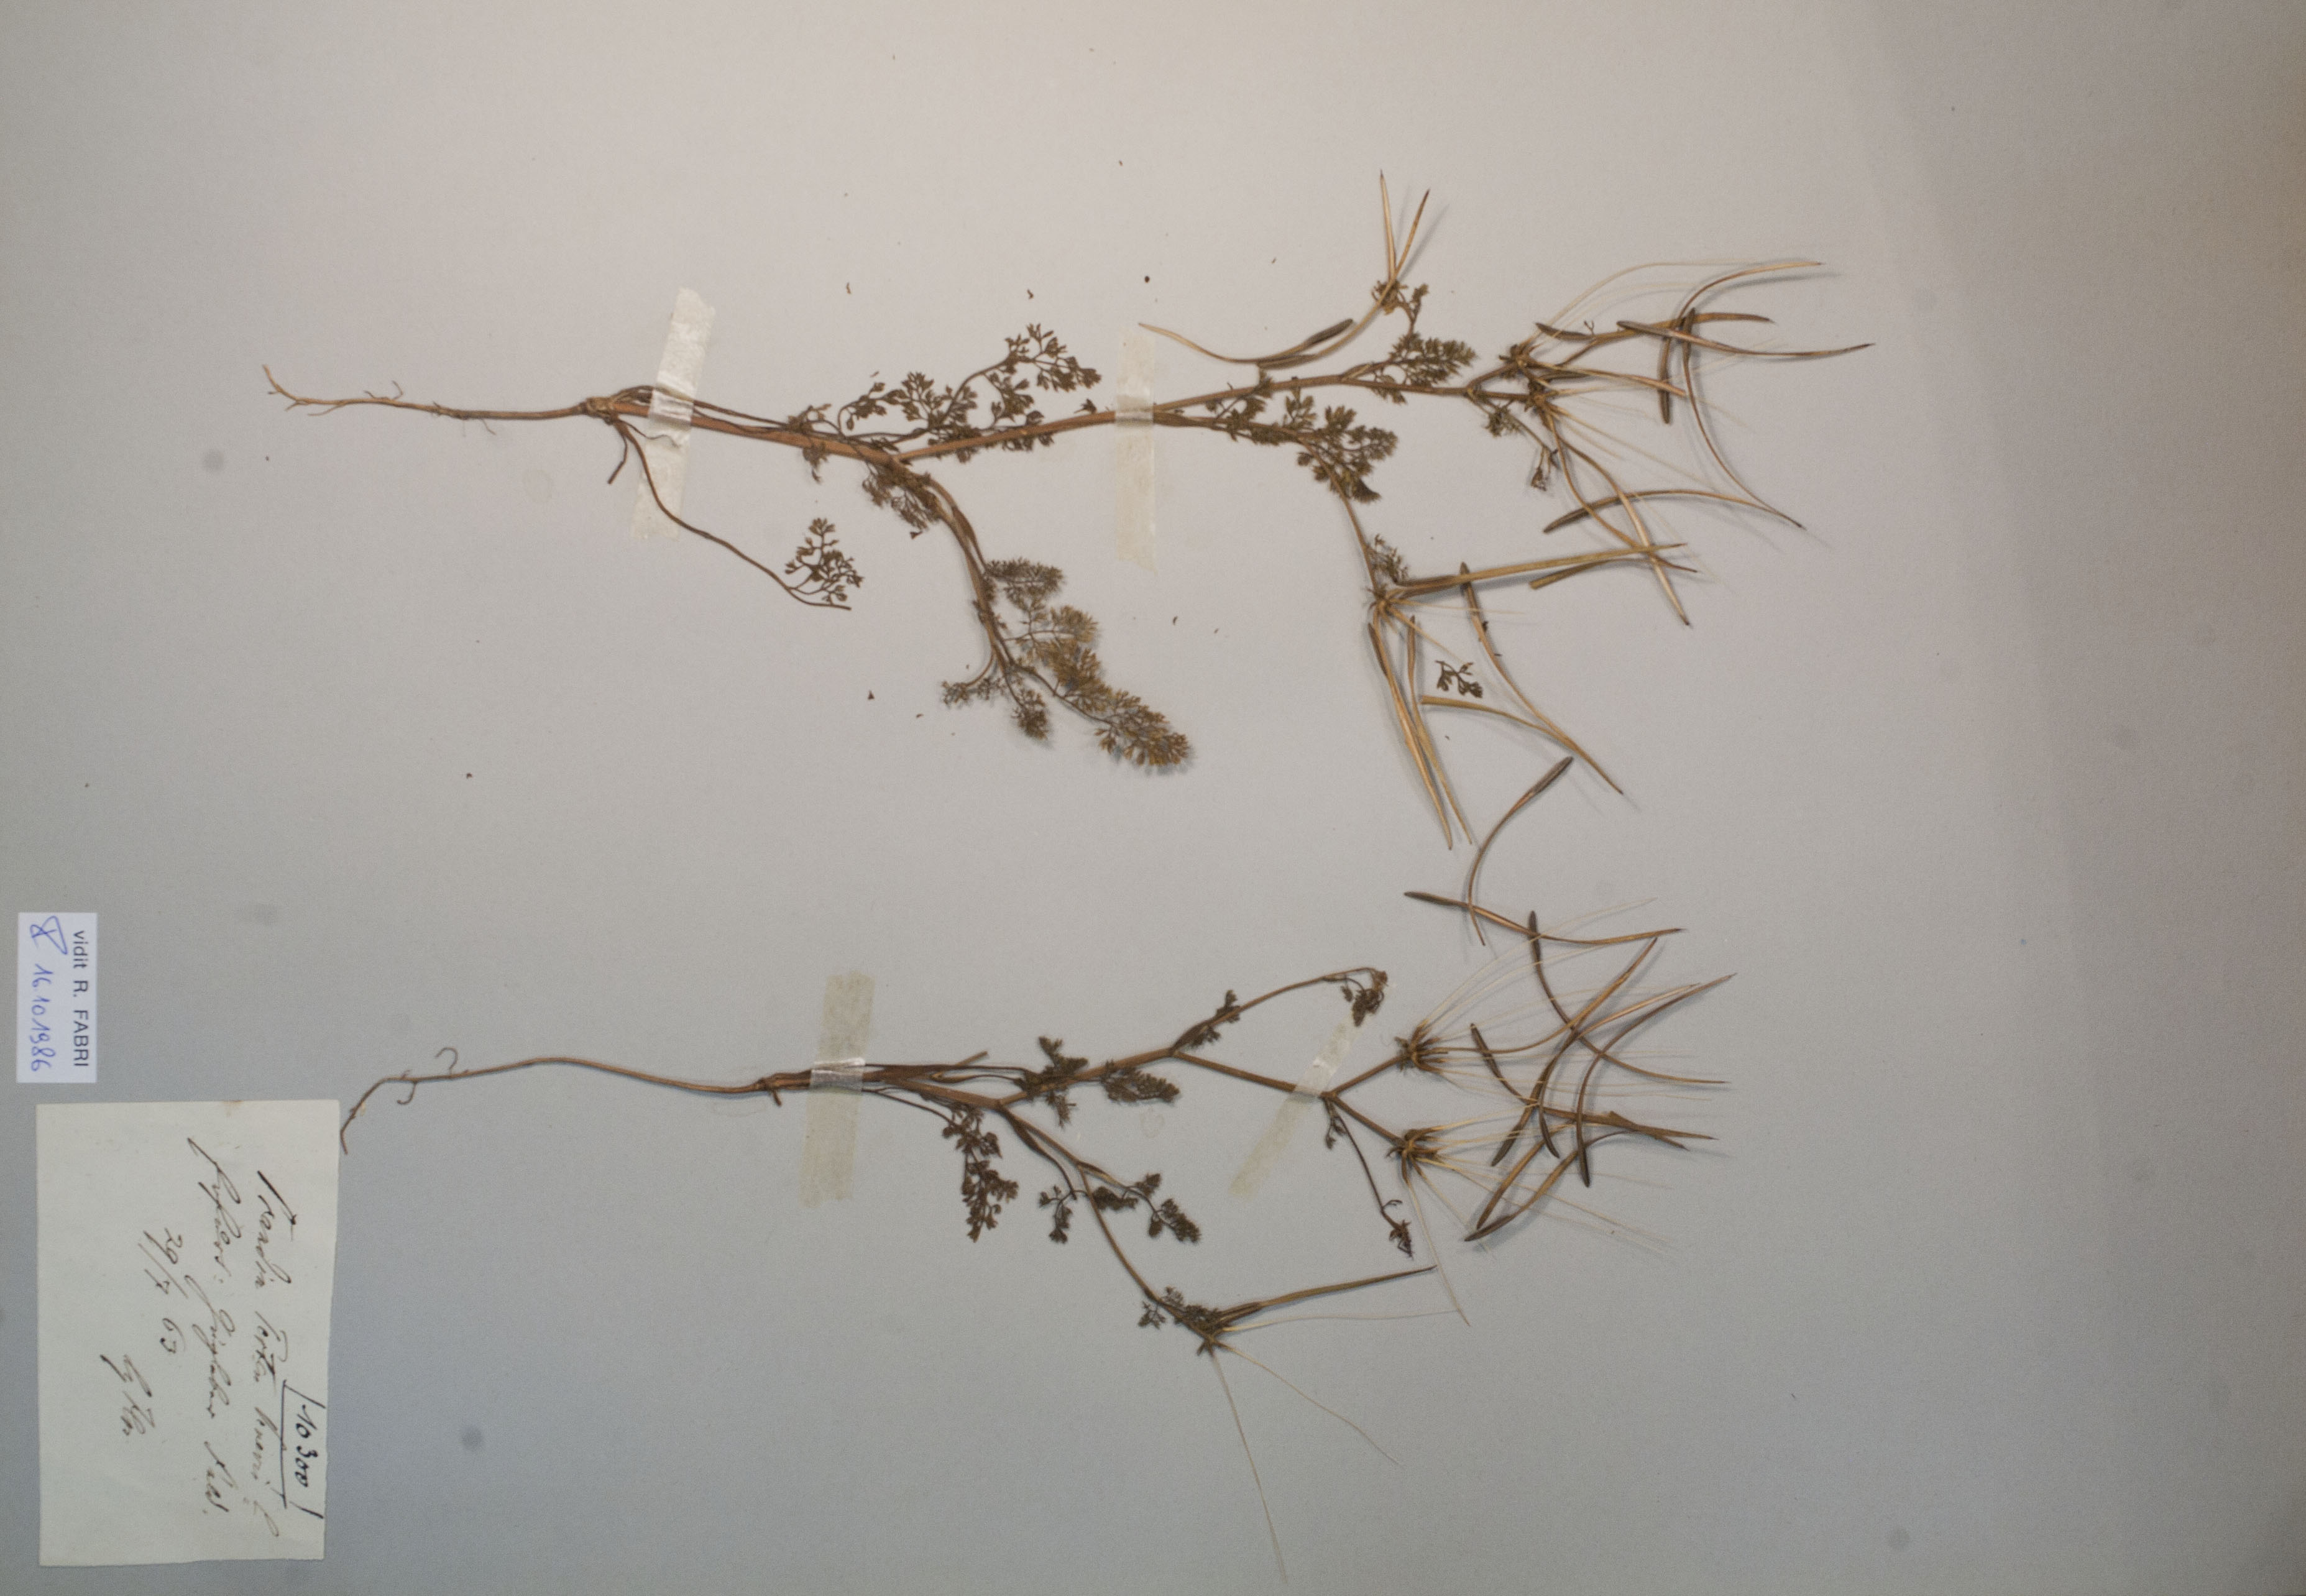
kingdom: Plantae
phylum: Tracheophyta
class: Magnoliopsida
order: Apiales
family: Apiaceae
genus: Scandix
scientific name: Scandix pecten-veneris
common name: Shepherd's-needle
